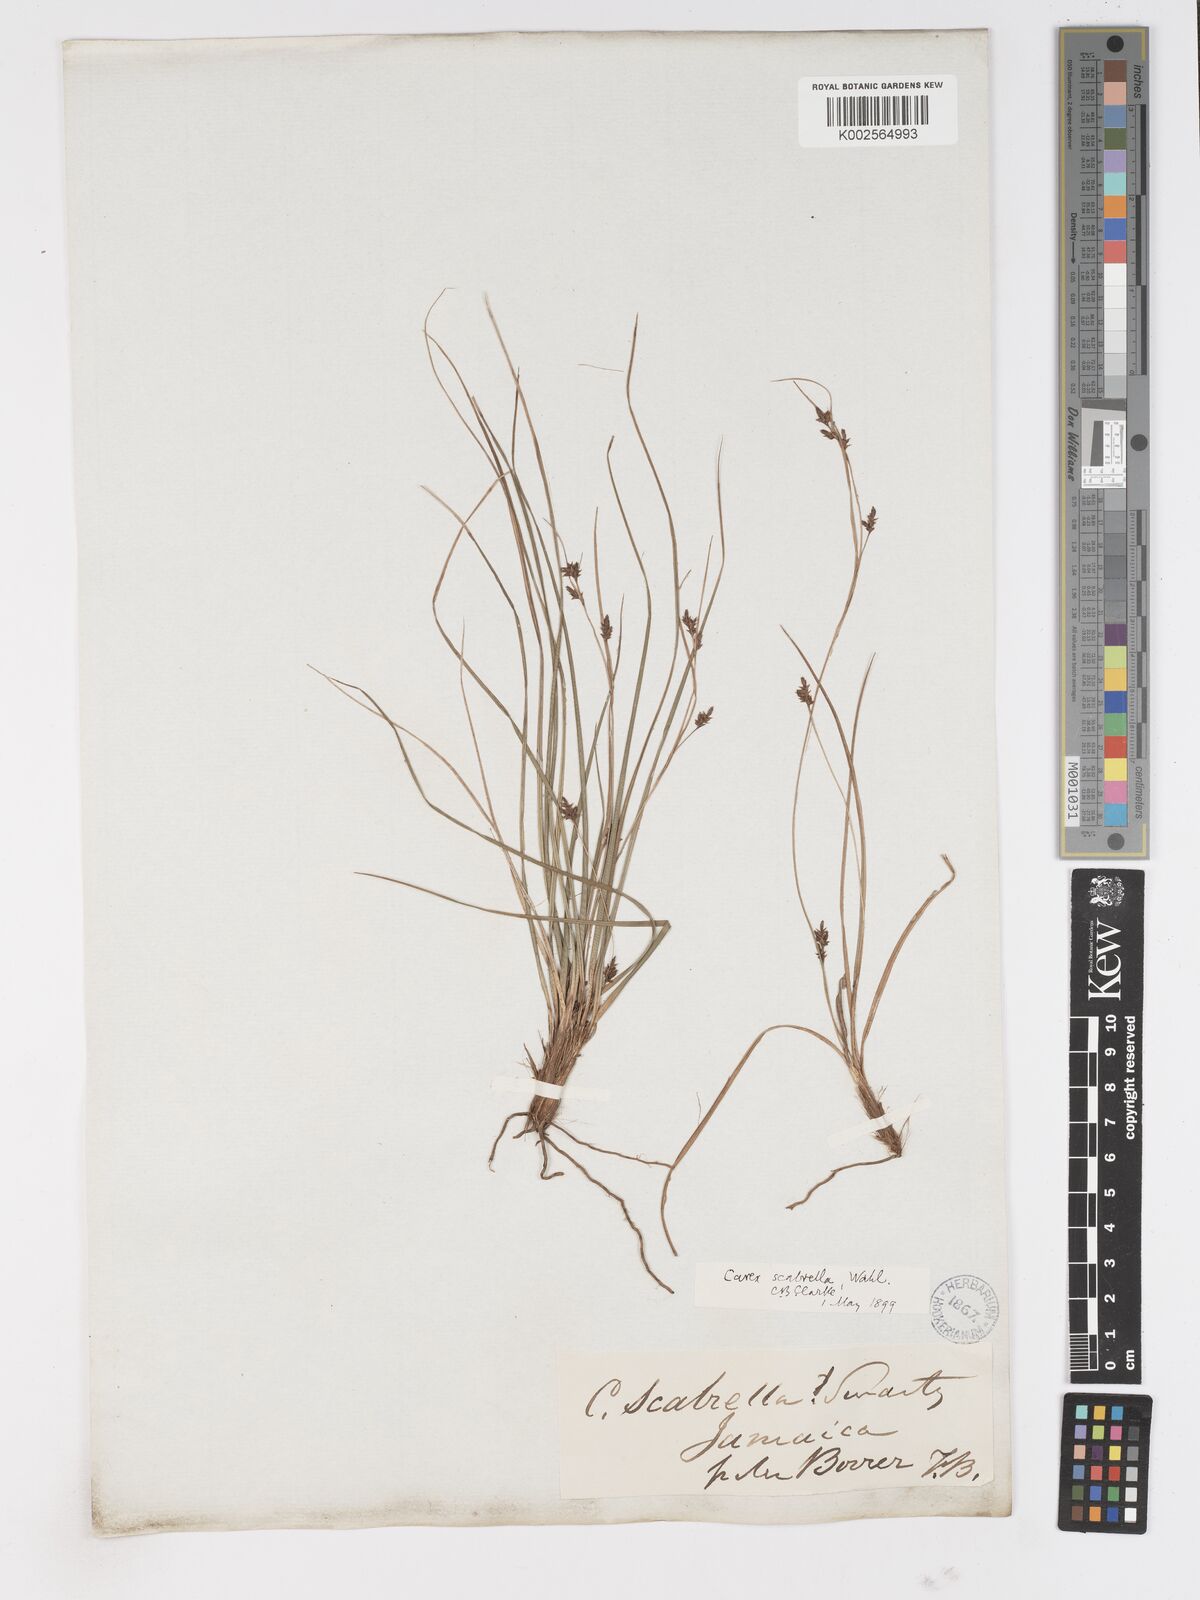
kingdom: Plantae
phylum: Tracheophyta
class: Liliopsida
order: Poales
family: Cyperaceae
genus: Carex
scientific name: Carex
